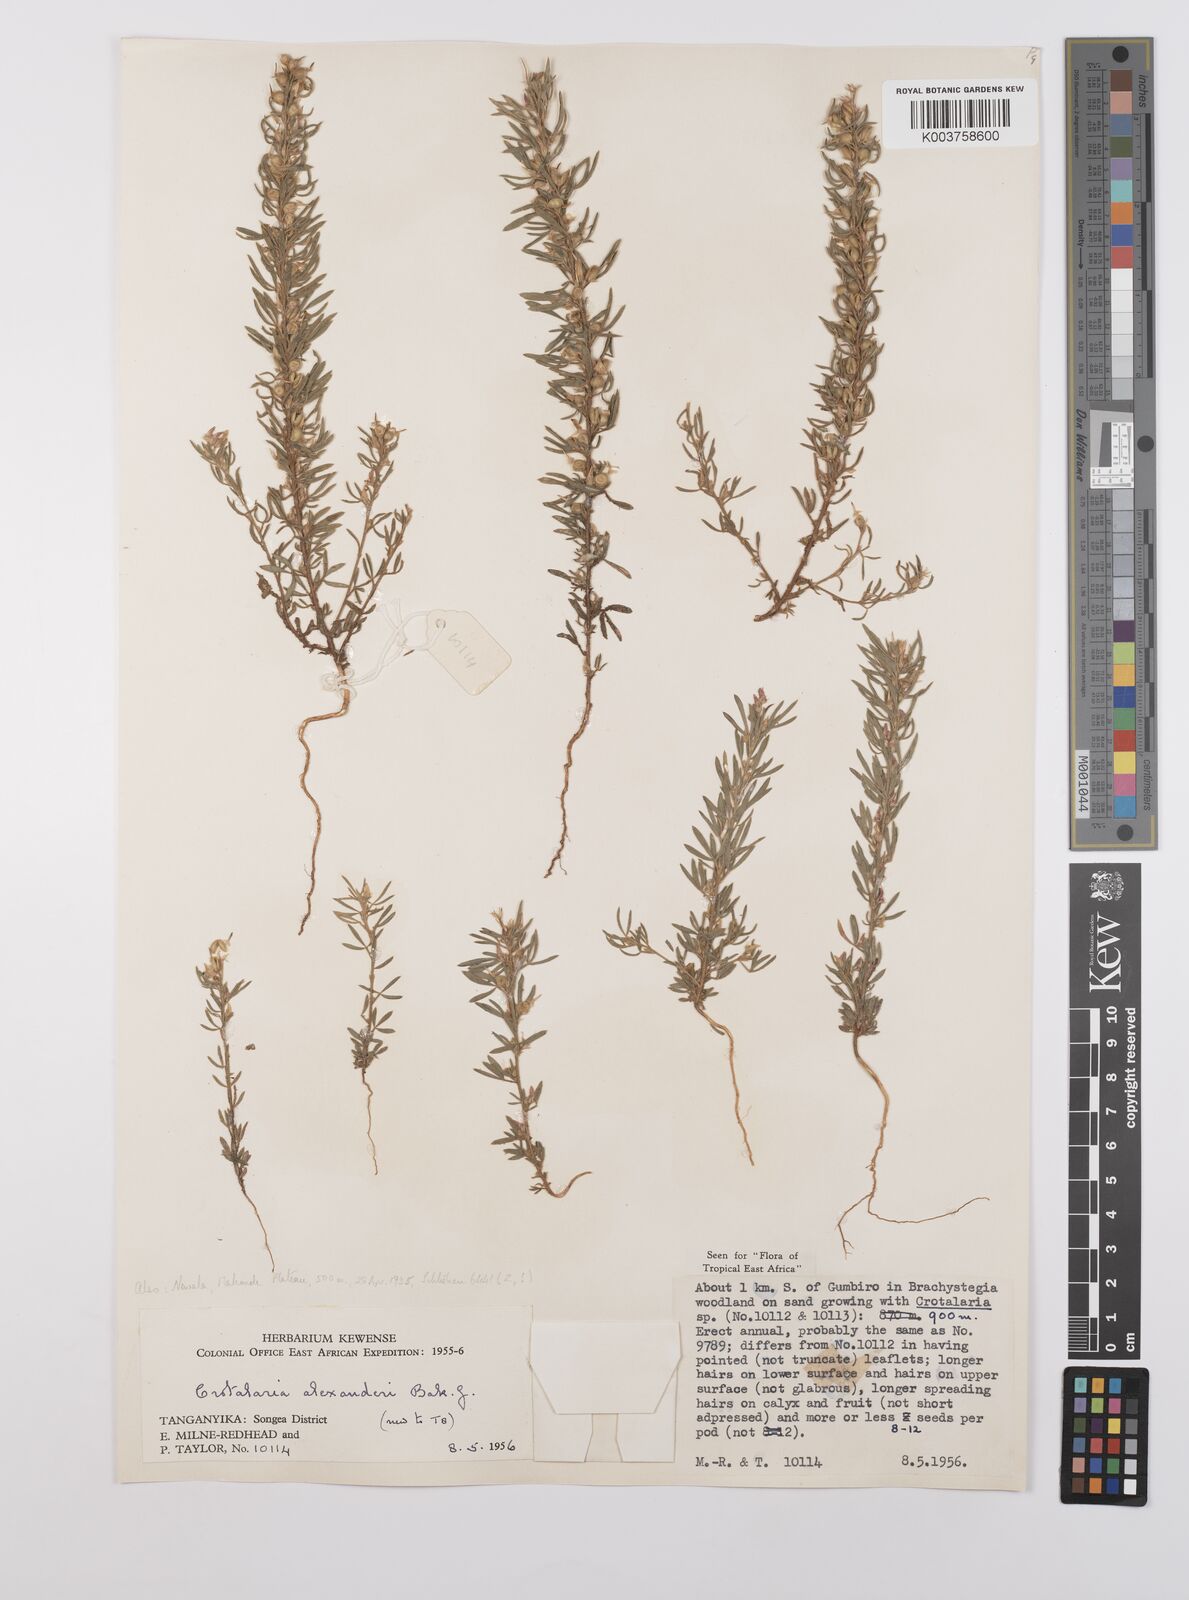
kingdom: Plantae
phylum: Tracheophyta
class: Magnoliopsida
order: Fabales
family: Fabaceae
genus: Crotalaria
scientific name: Crotalaria alexandri
